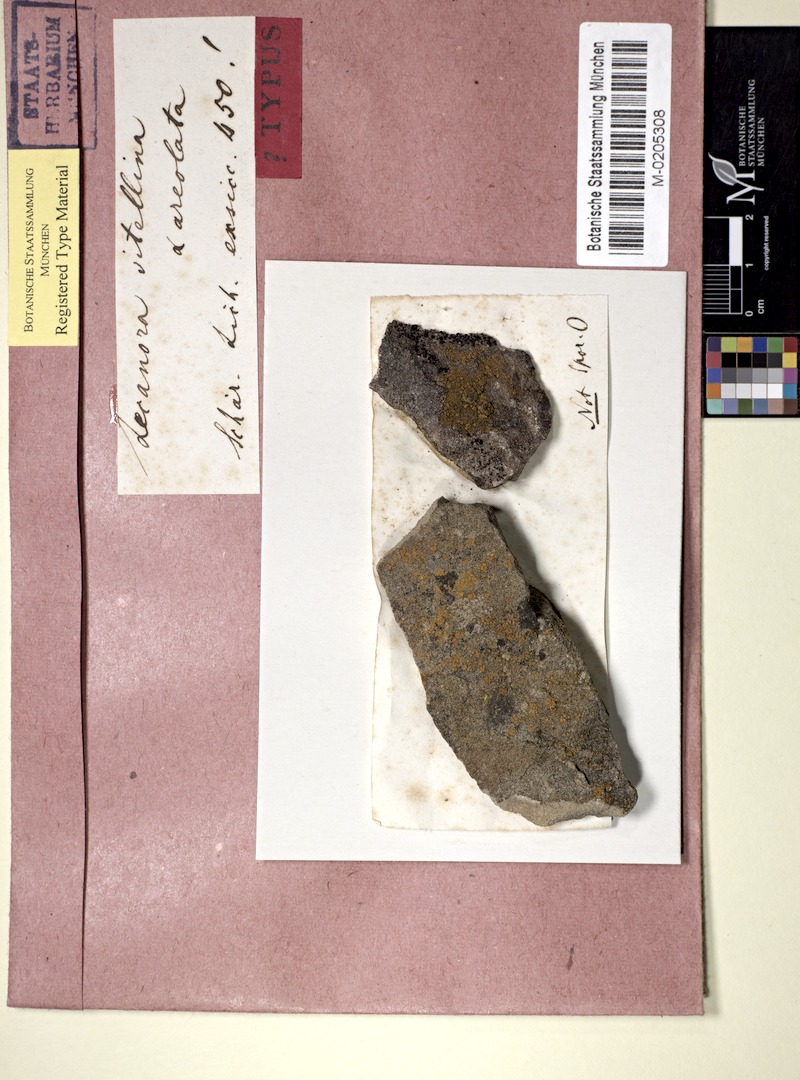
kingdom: Fungi
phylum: Ascomycota
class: Candelariomycetes
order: Candelariales
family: Candelariaceae
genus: Candelariella
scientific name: Candelariella vitellina
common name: Common goldspeck
